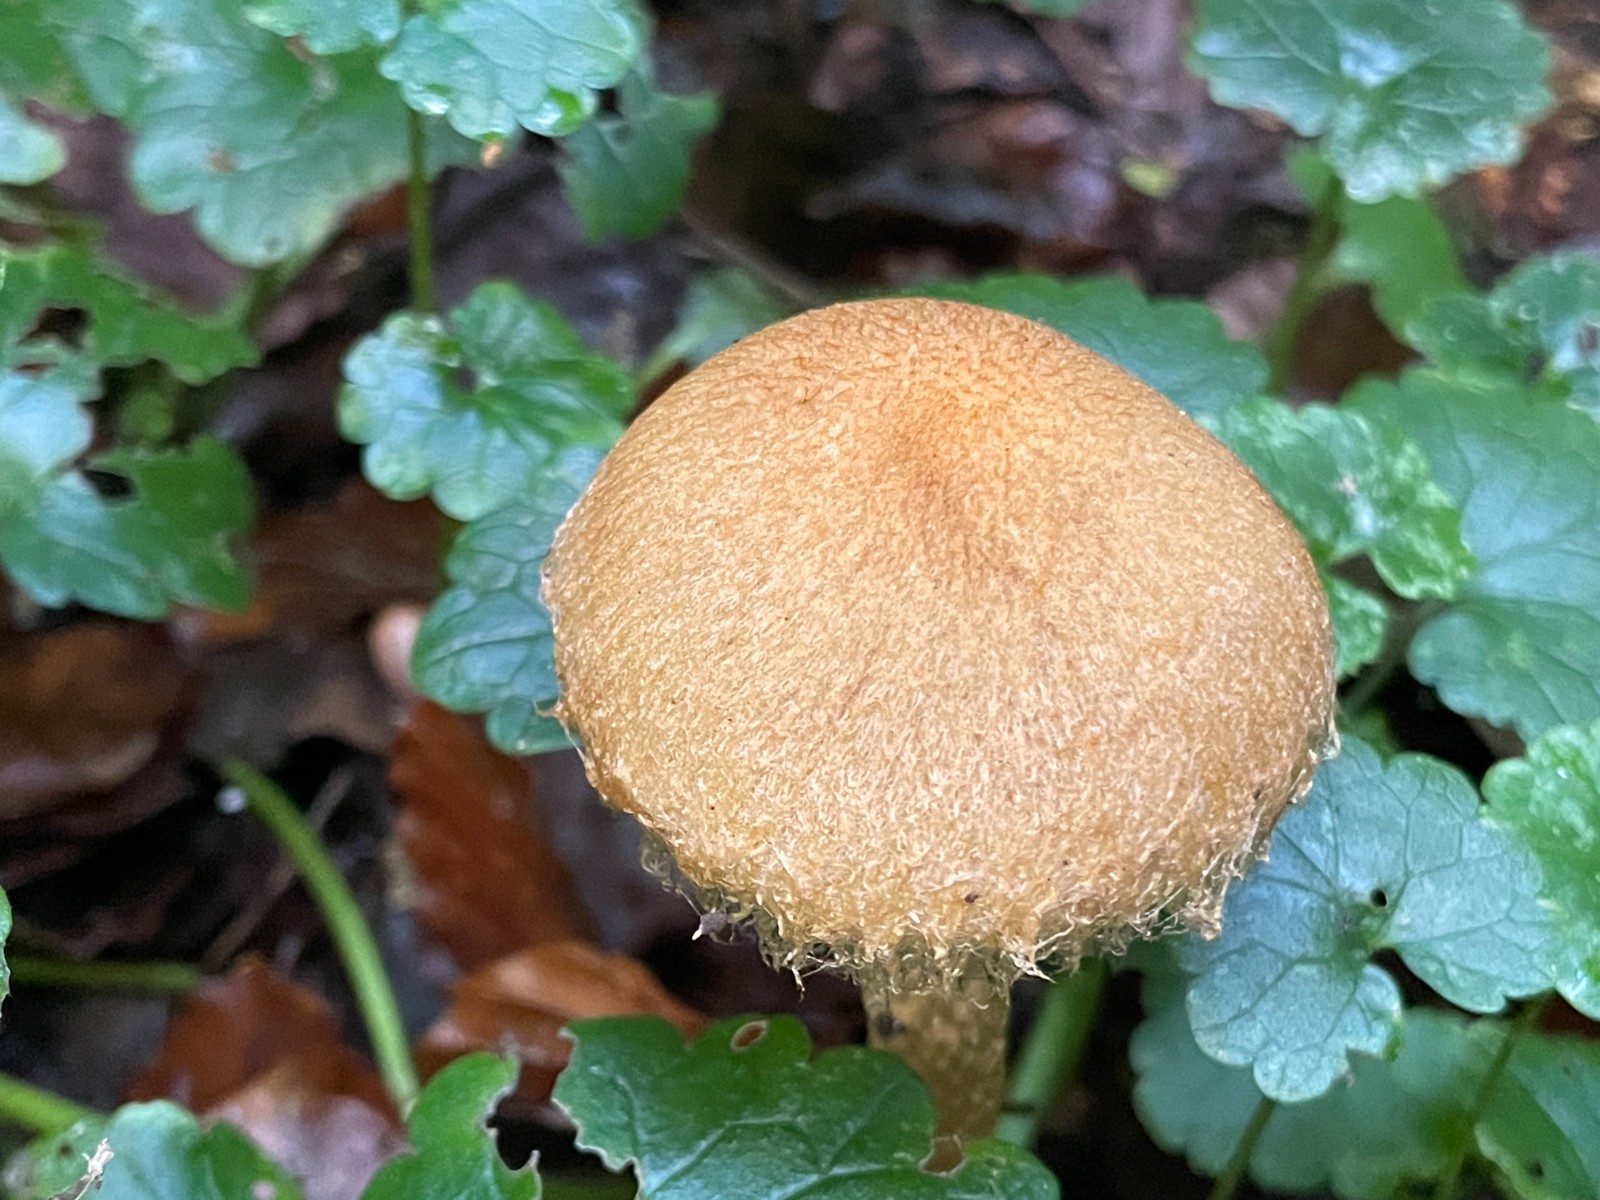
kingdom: Fungi
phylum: Basidiomycota
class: Agaricomycetes
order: Agaricales
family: Psathyrellaceae
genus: Lacrymaria
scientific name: Lacrymaria pyrotricha
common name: ildhåret mørkhat
